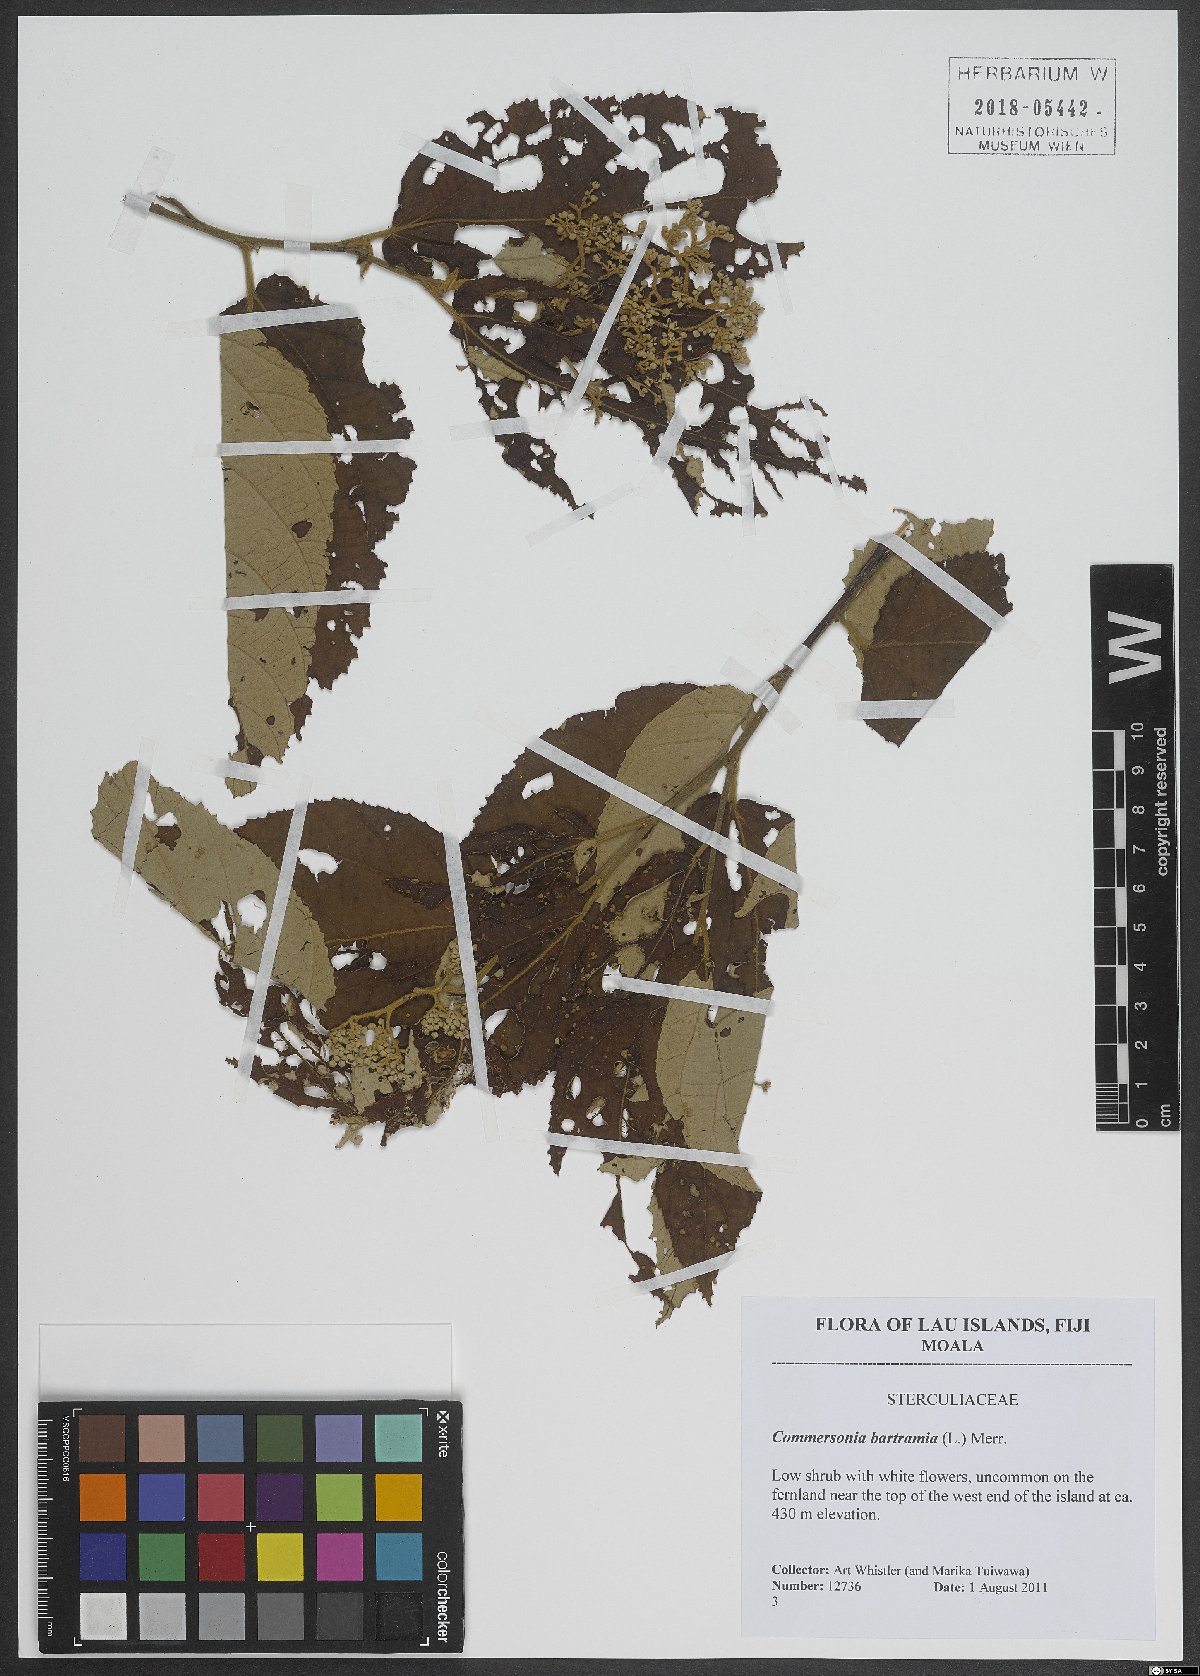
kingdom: Plantae
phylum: Tracheophyta
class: Magnoliopsida
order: Malvales
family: Malvaceae
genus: Commersonia
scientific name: Commersonia bartramia
